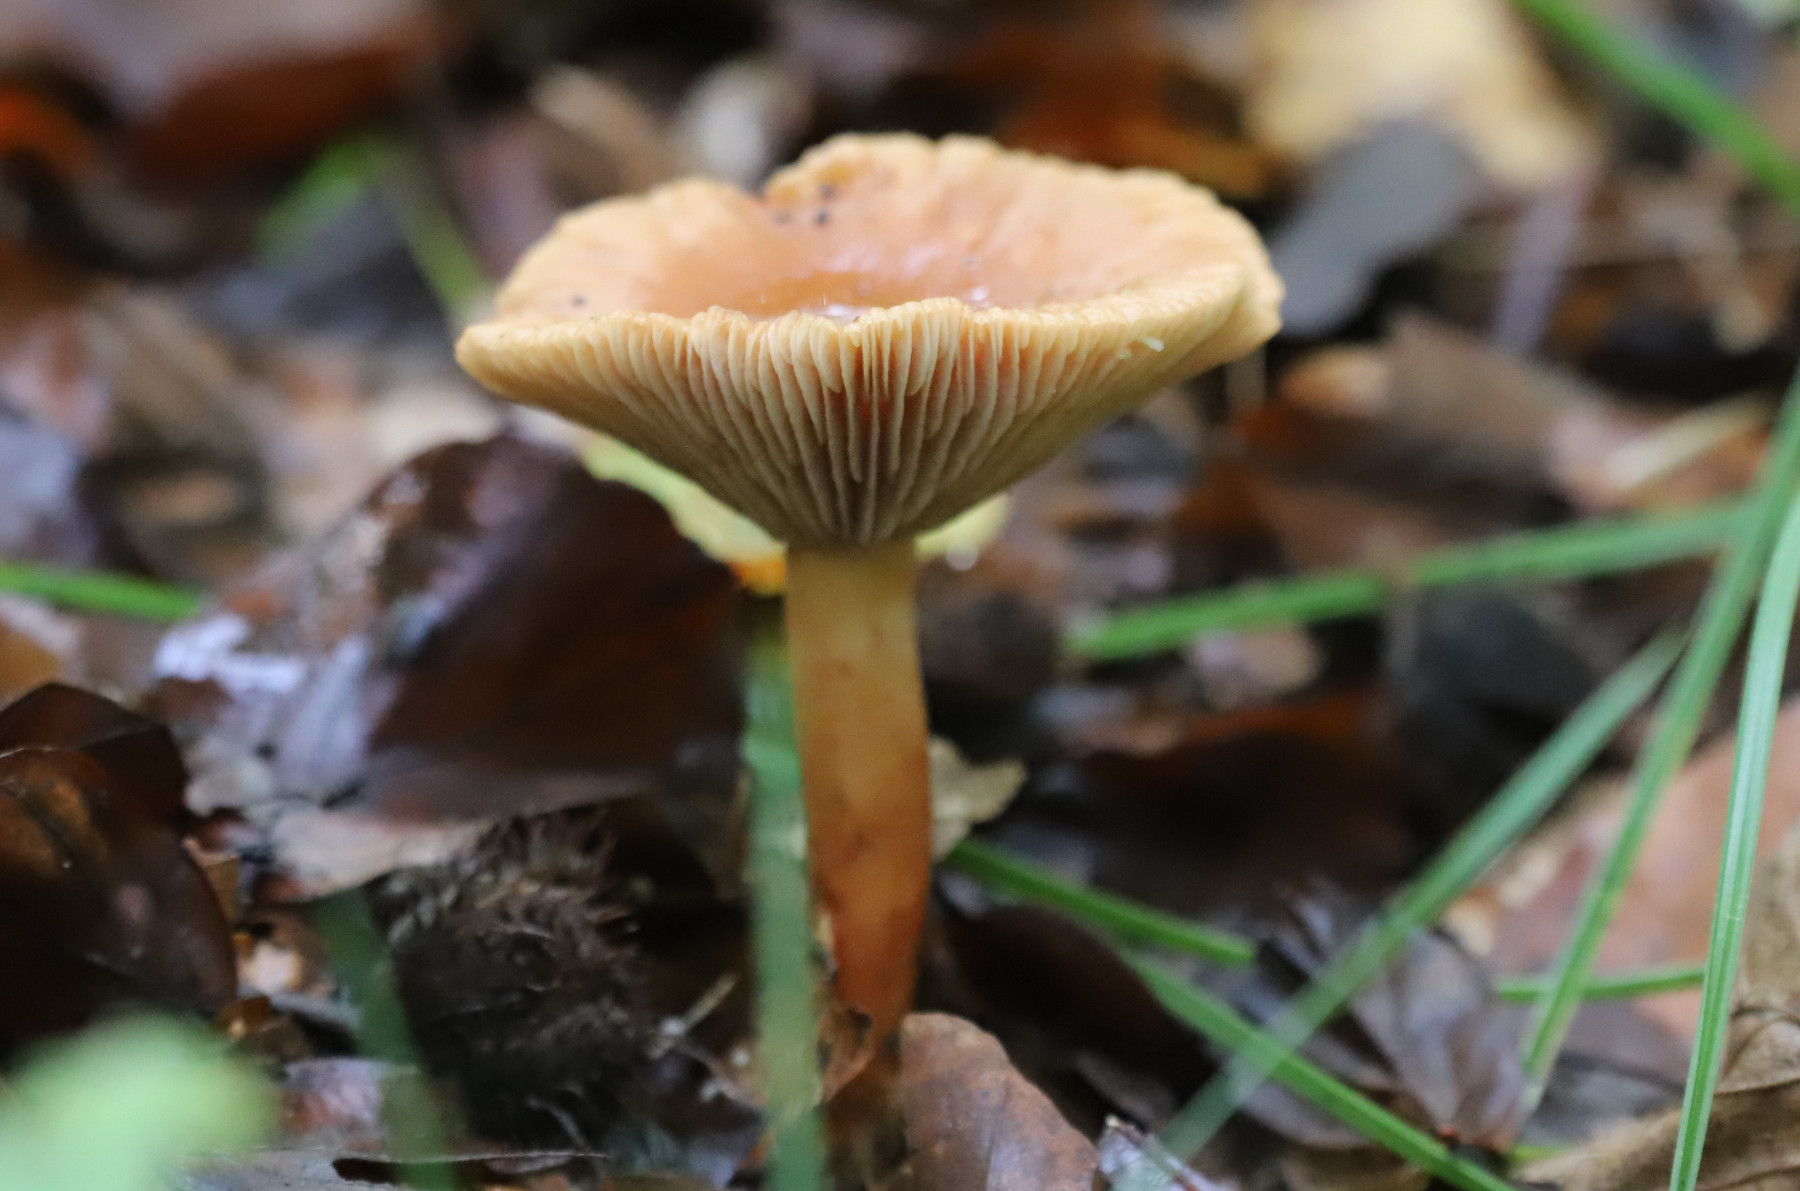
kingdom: Fungi
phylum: Basidiomycota
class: Agaricomycetes
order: Russulales
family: Russulaceae
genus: Lactarius
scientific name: Lactarius tabidus
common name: rynket mælkehat
